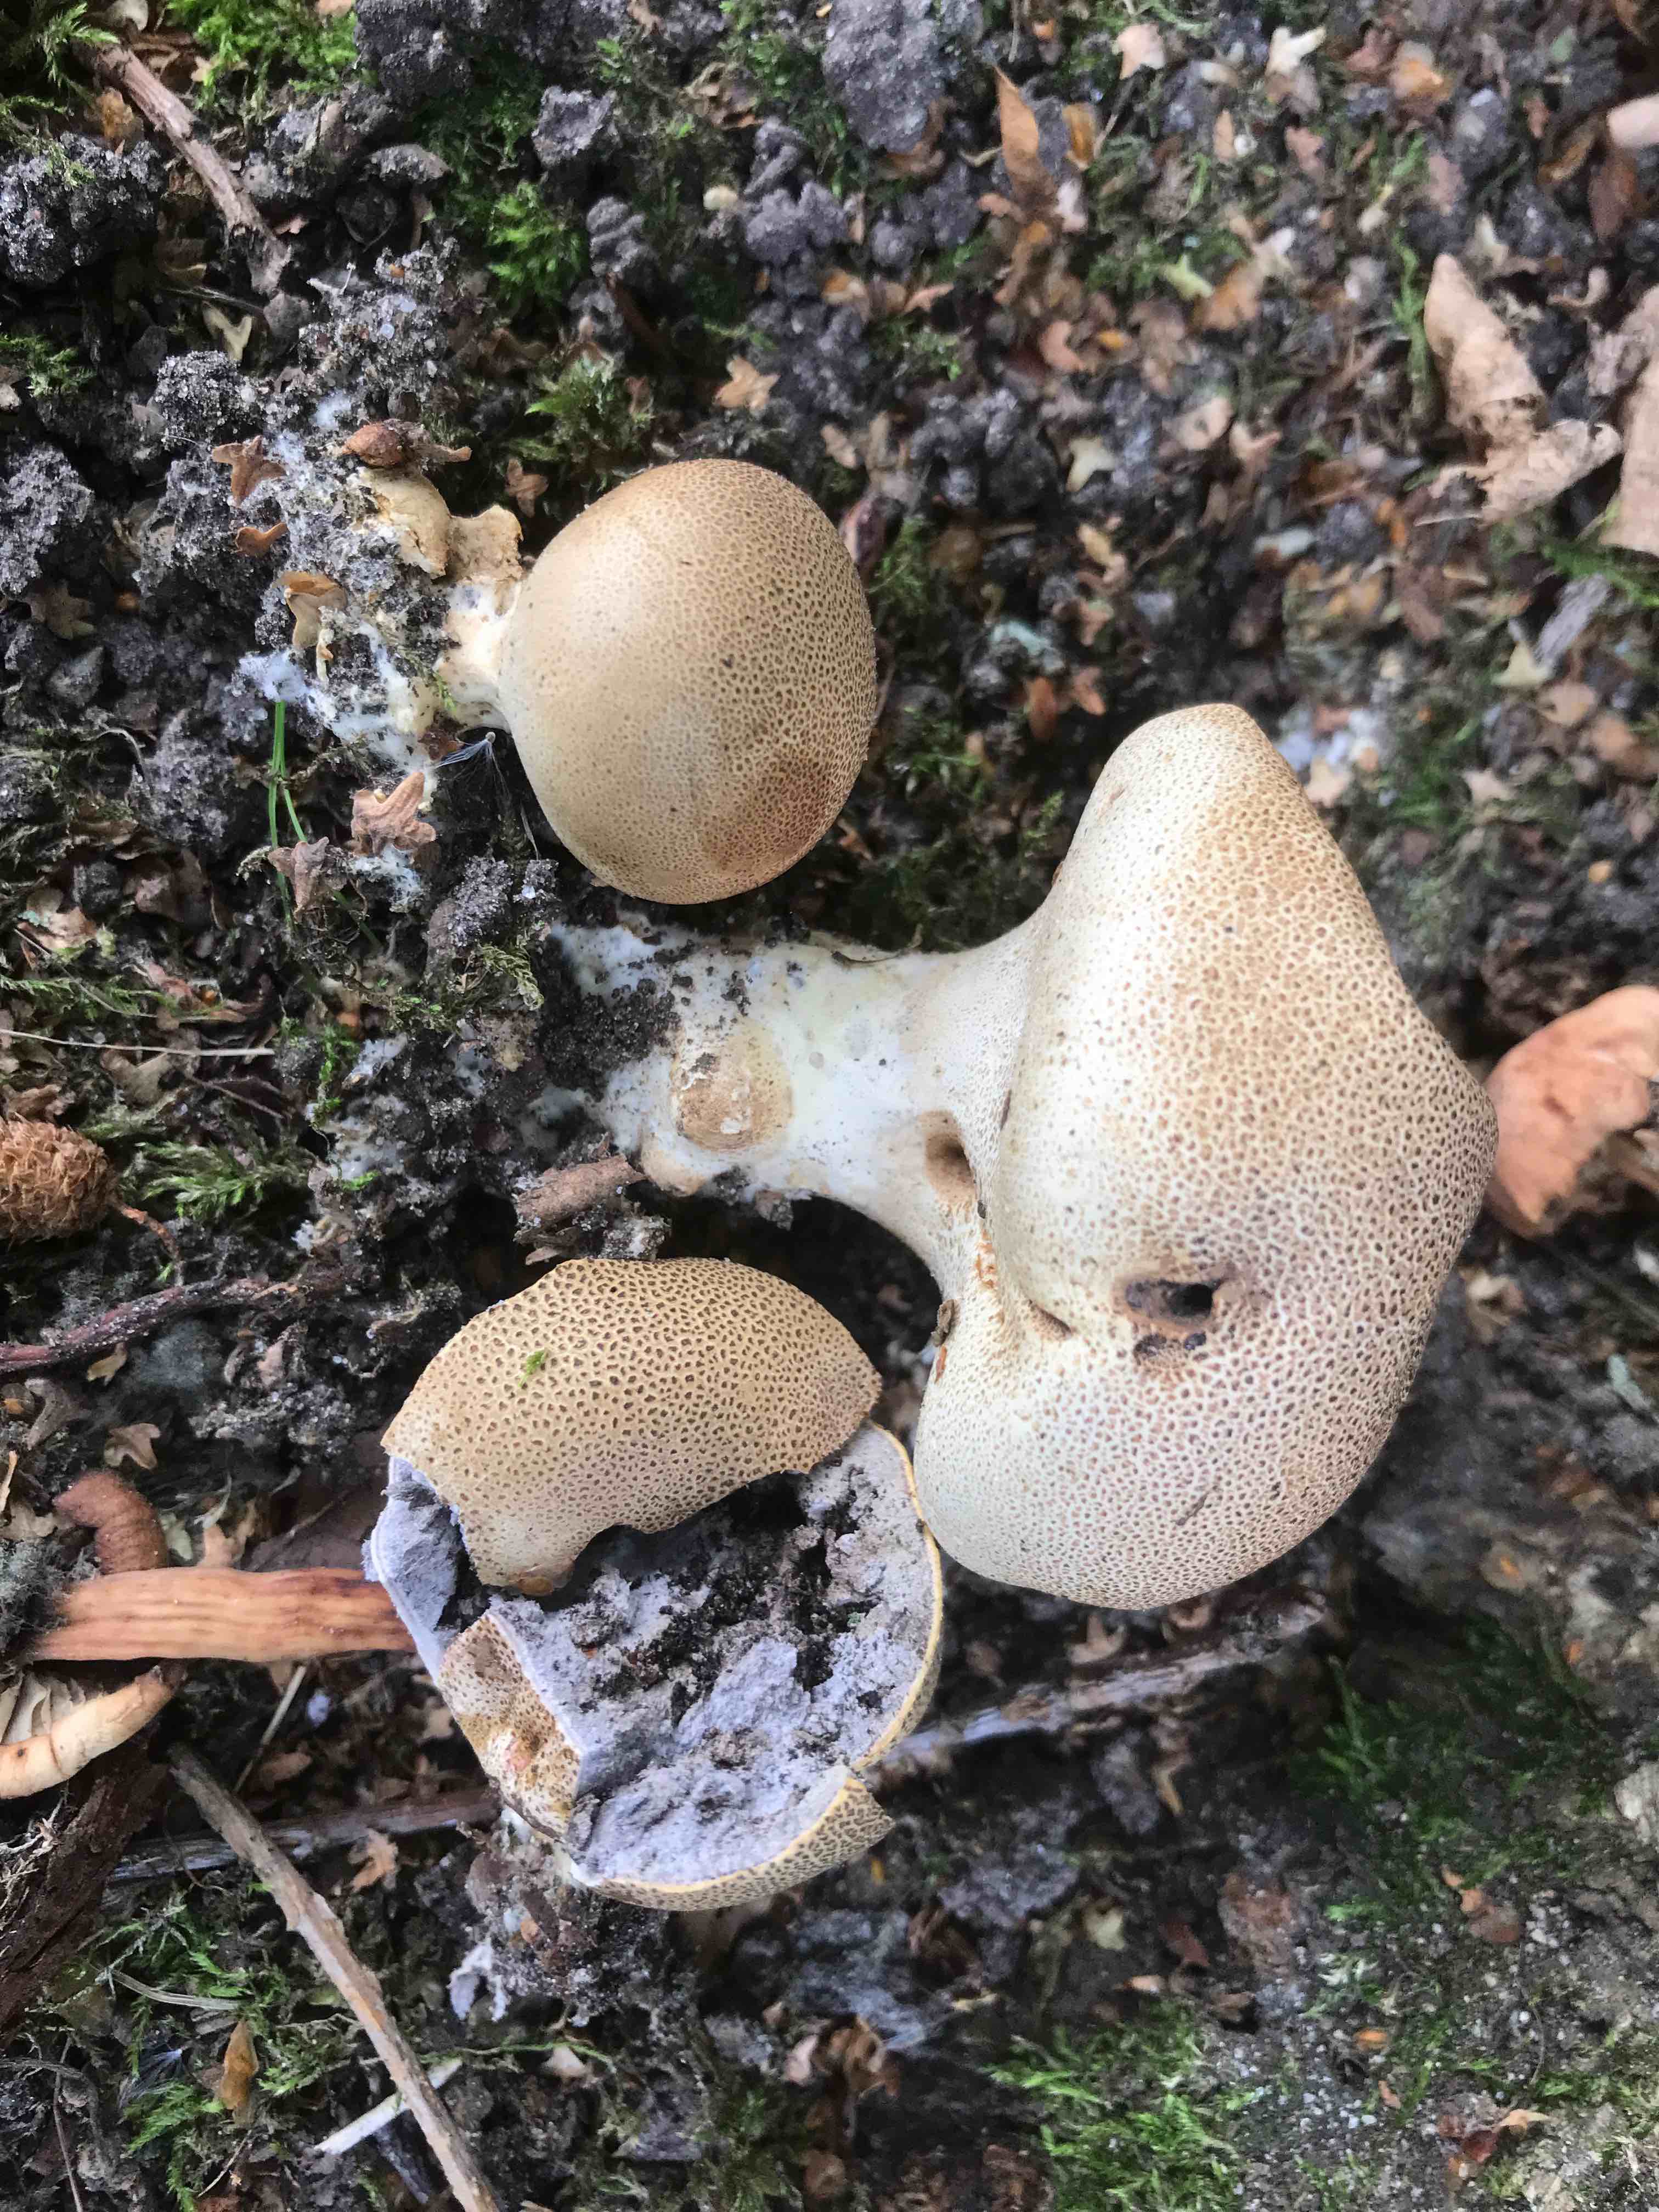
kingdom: Fungi
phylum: Basidiomycota
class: Agaricomycetes
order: Boletales
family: Sclerodermataceae
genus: Scleroderma
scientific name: Scleroderma areolatum
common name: plettet bruskbold
